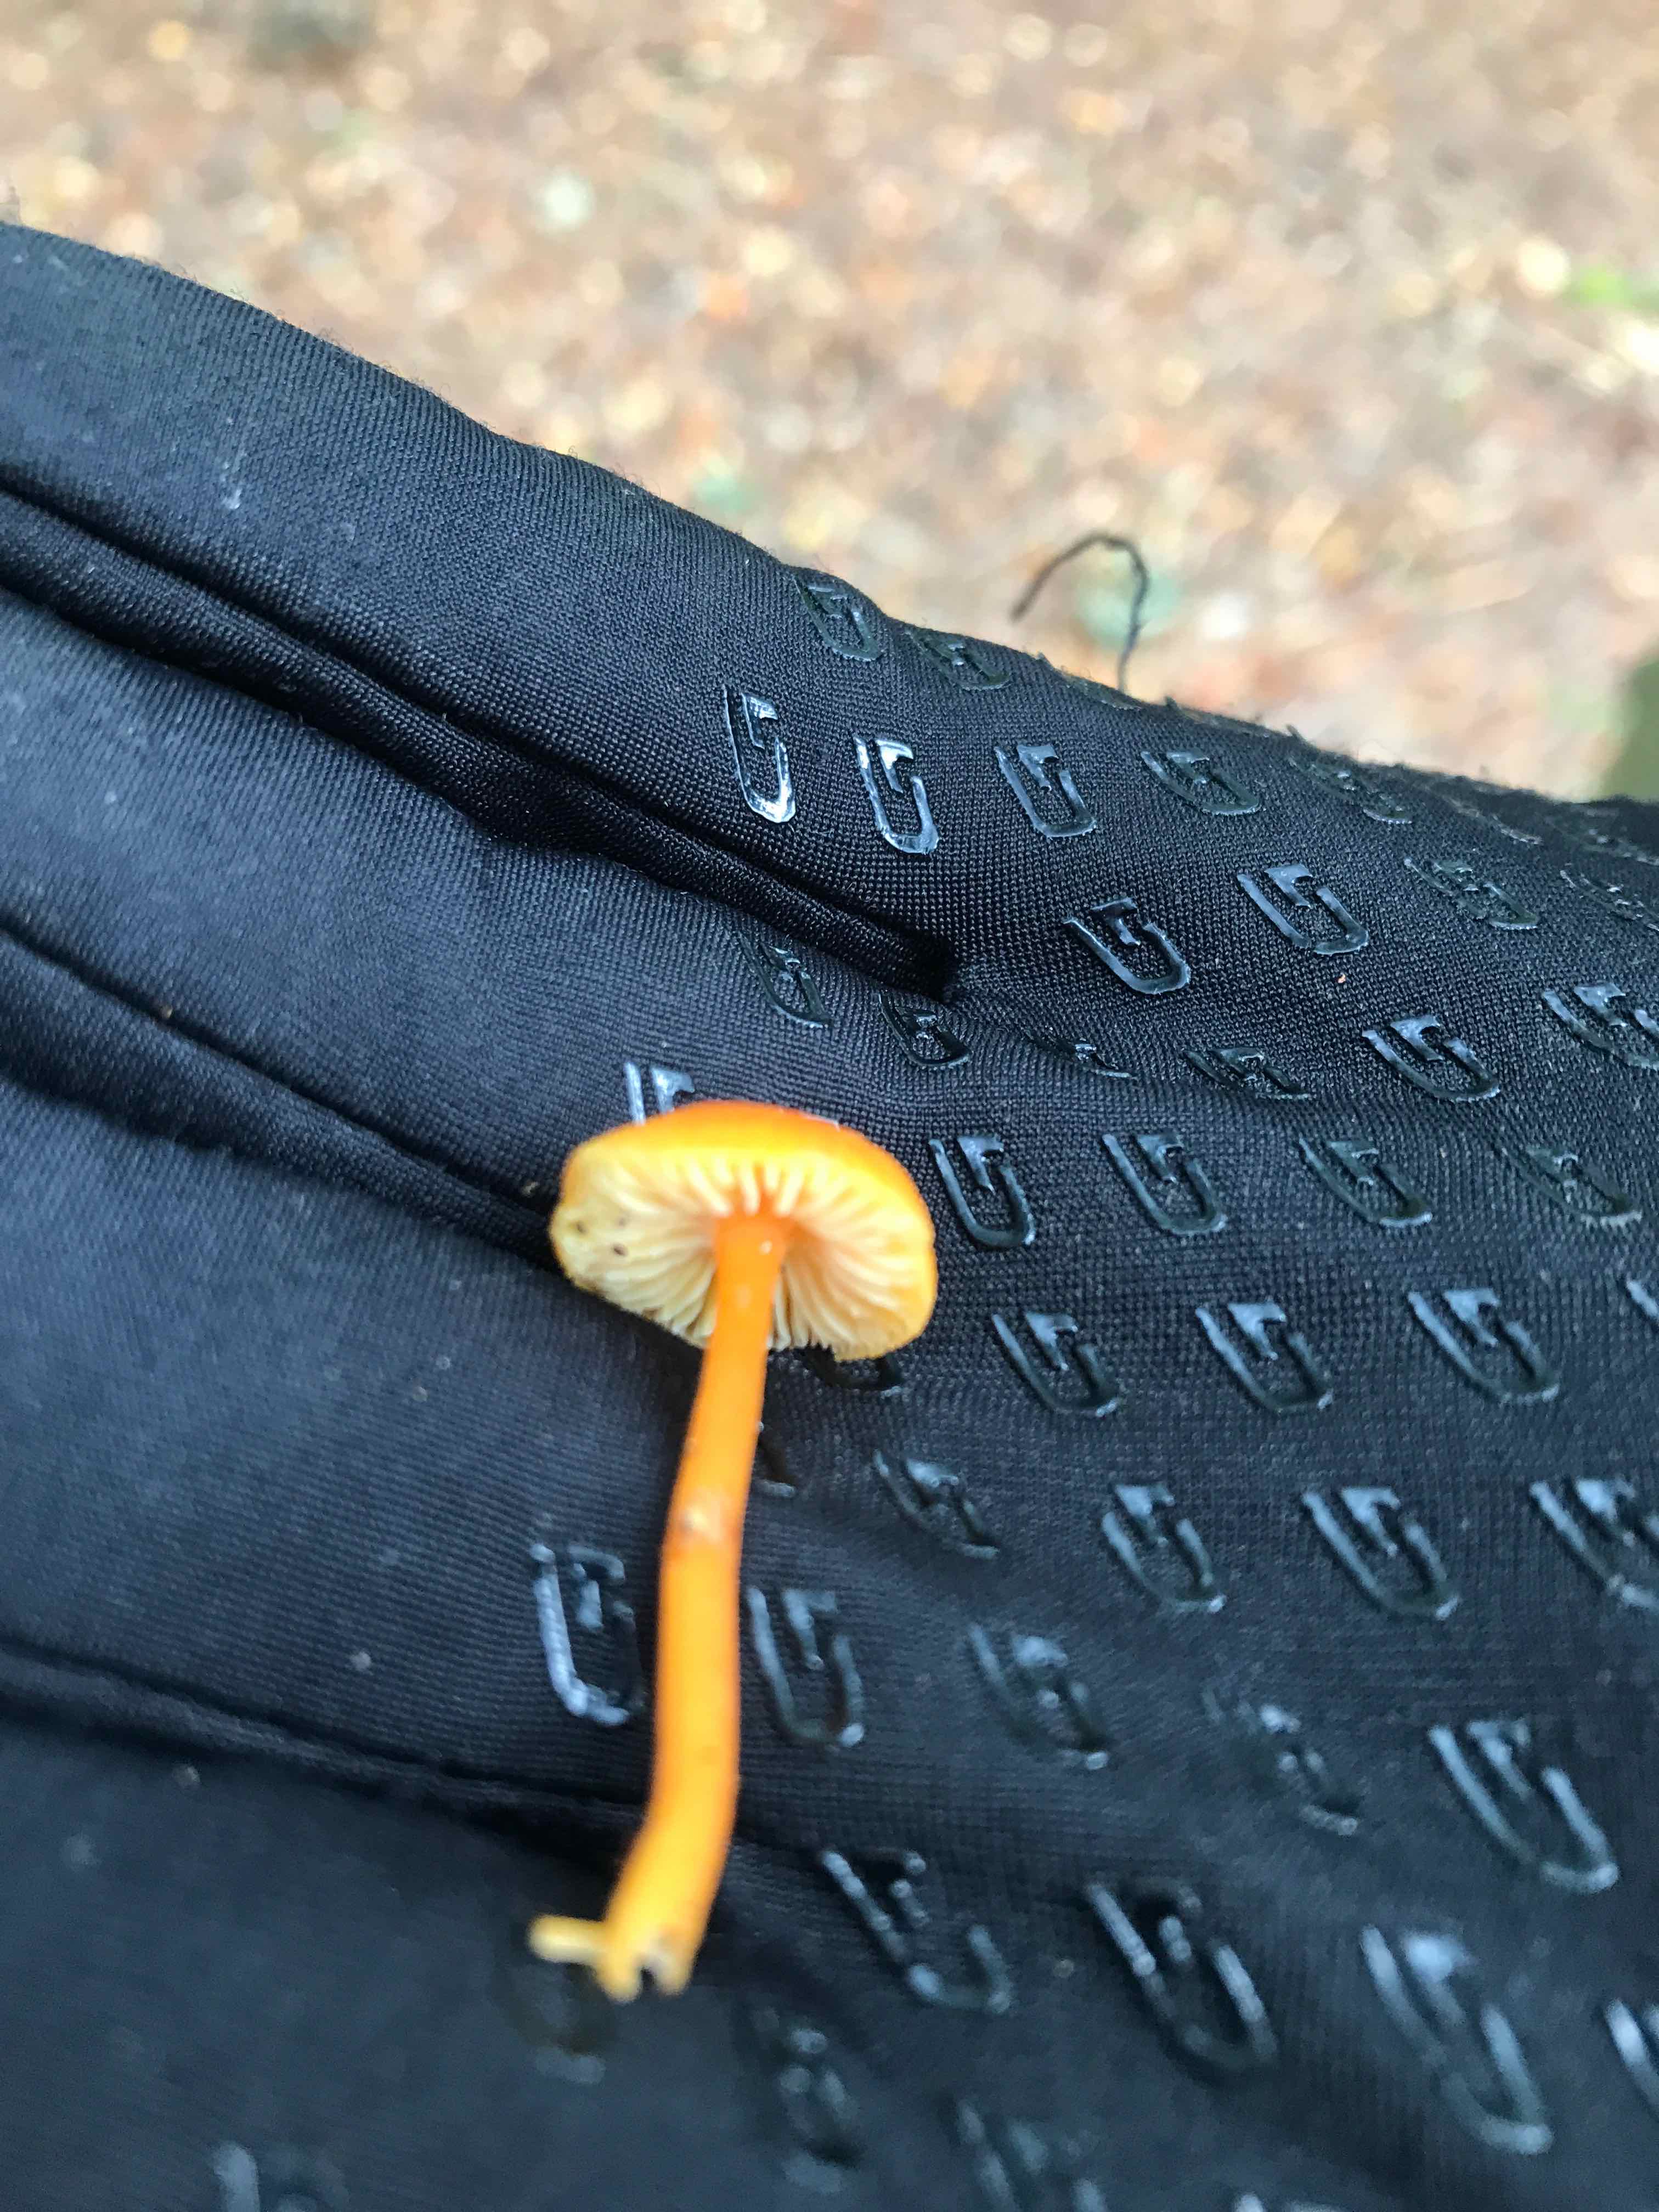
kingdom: Fungi
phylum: Basidiomycota
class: Agaricomycetes
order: Agaricales
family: Hygrophoraceae
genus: Hygrocybe
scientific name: Hygrocybe
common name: vokshat
